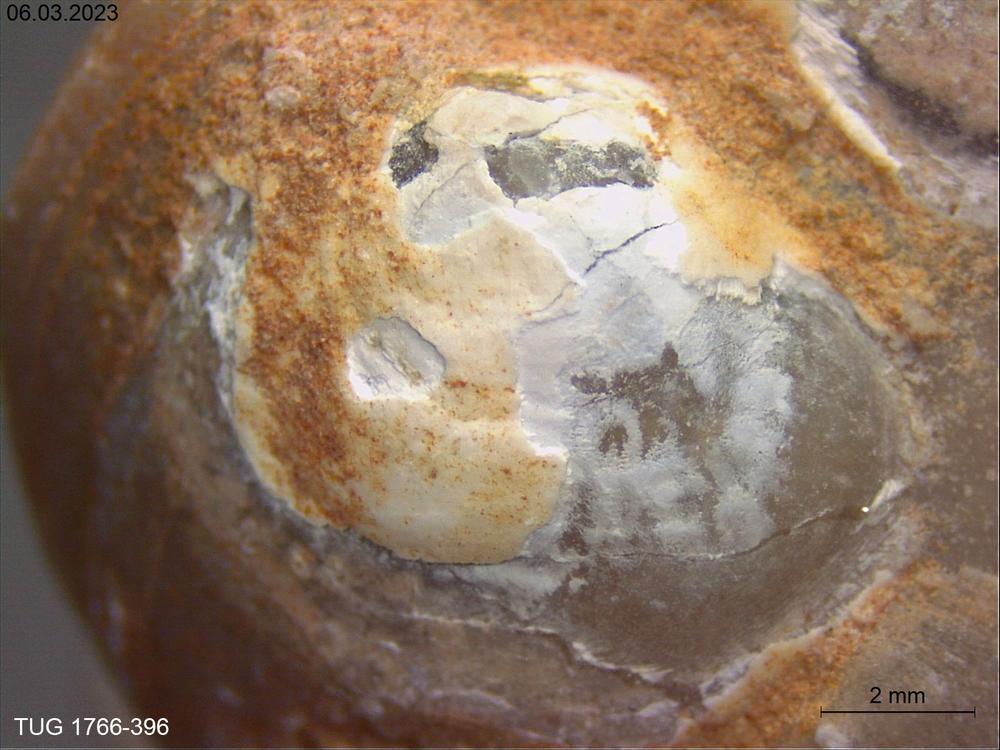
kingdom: Animalia
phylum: Brachiopoda
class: Craniata
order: Craniida
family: Craniidae
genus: Philhedra
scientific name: Philhedra
